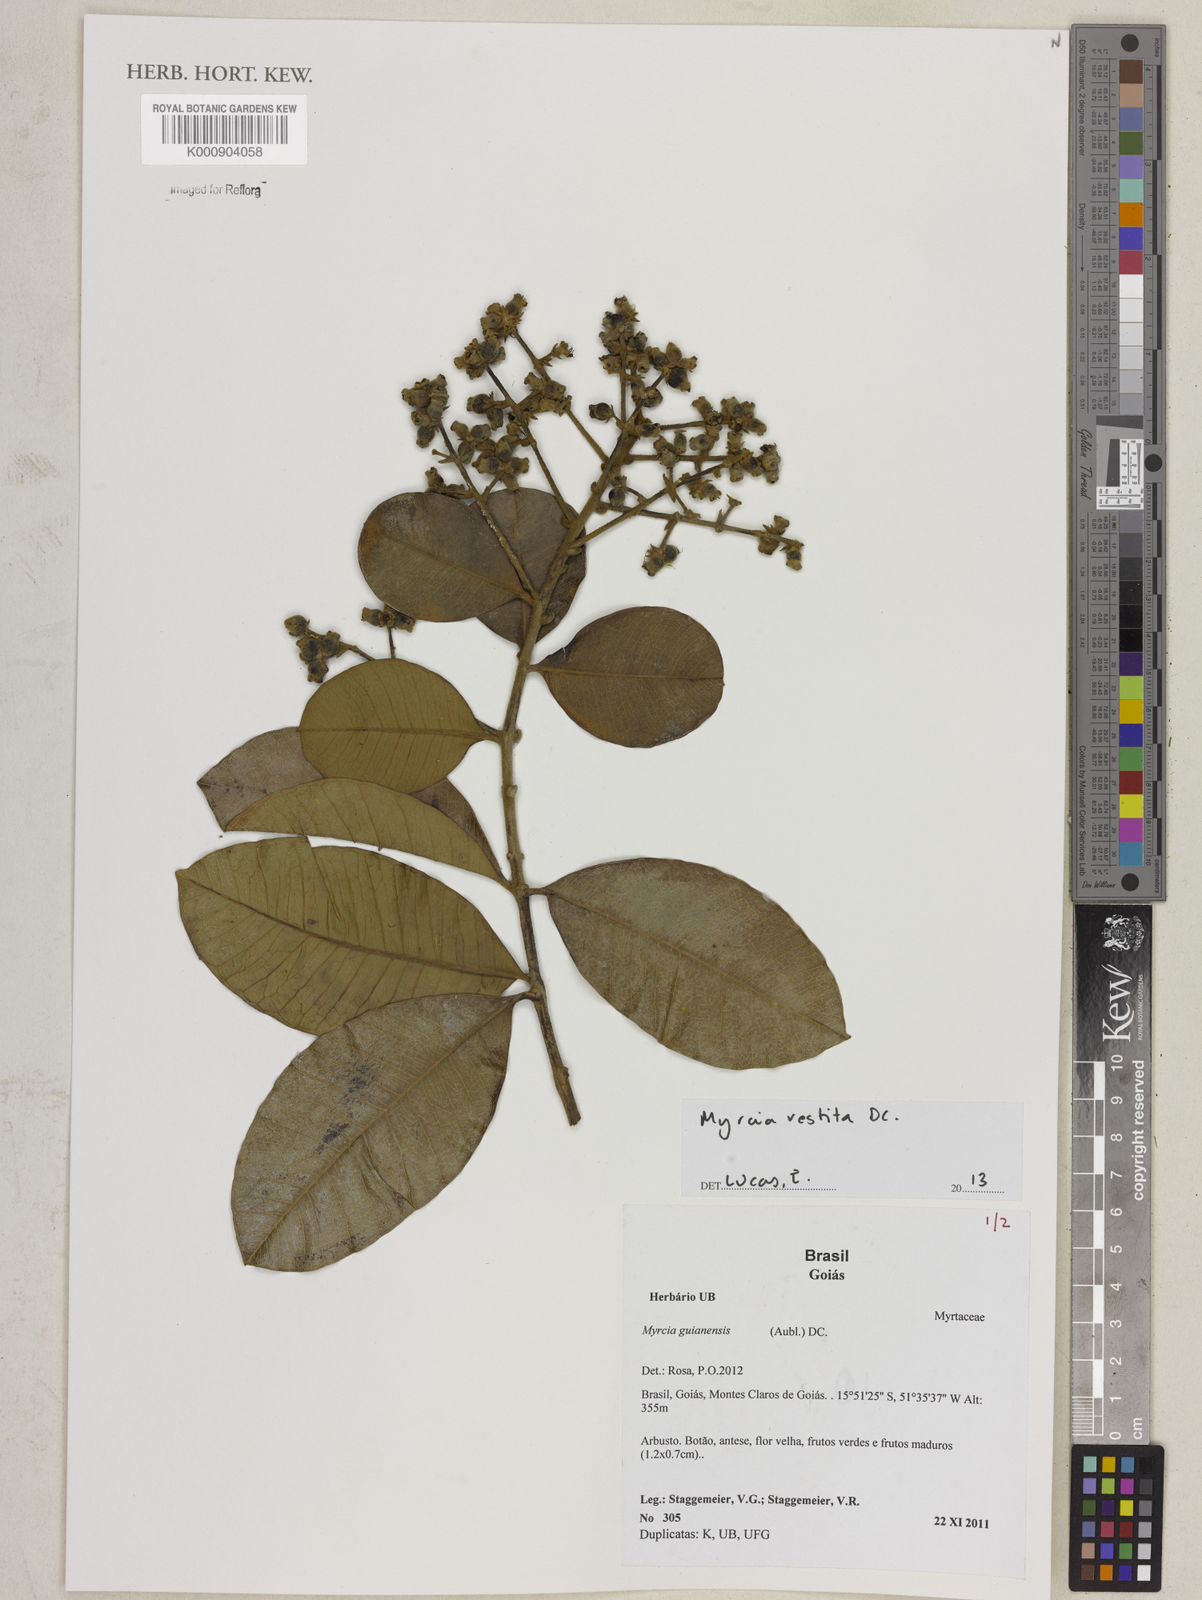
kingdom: Plantae
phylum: Tracheophyta
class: Magnoliopsida
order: Myrtales
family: Myrtaceae
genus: Myrcia
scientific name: Myrcia vestita
